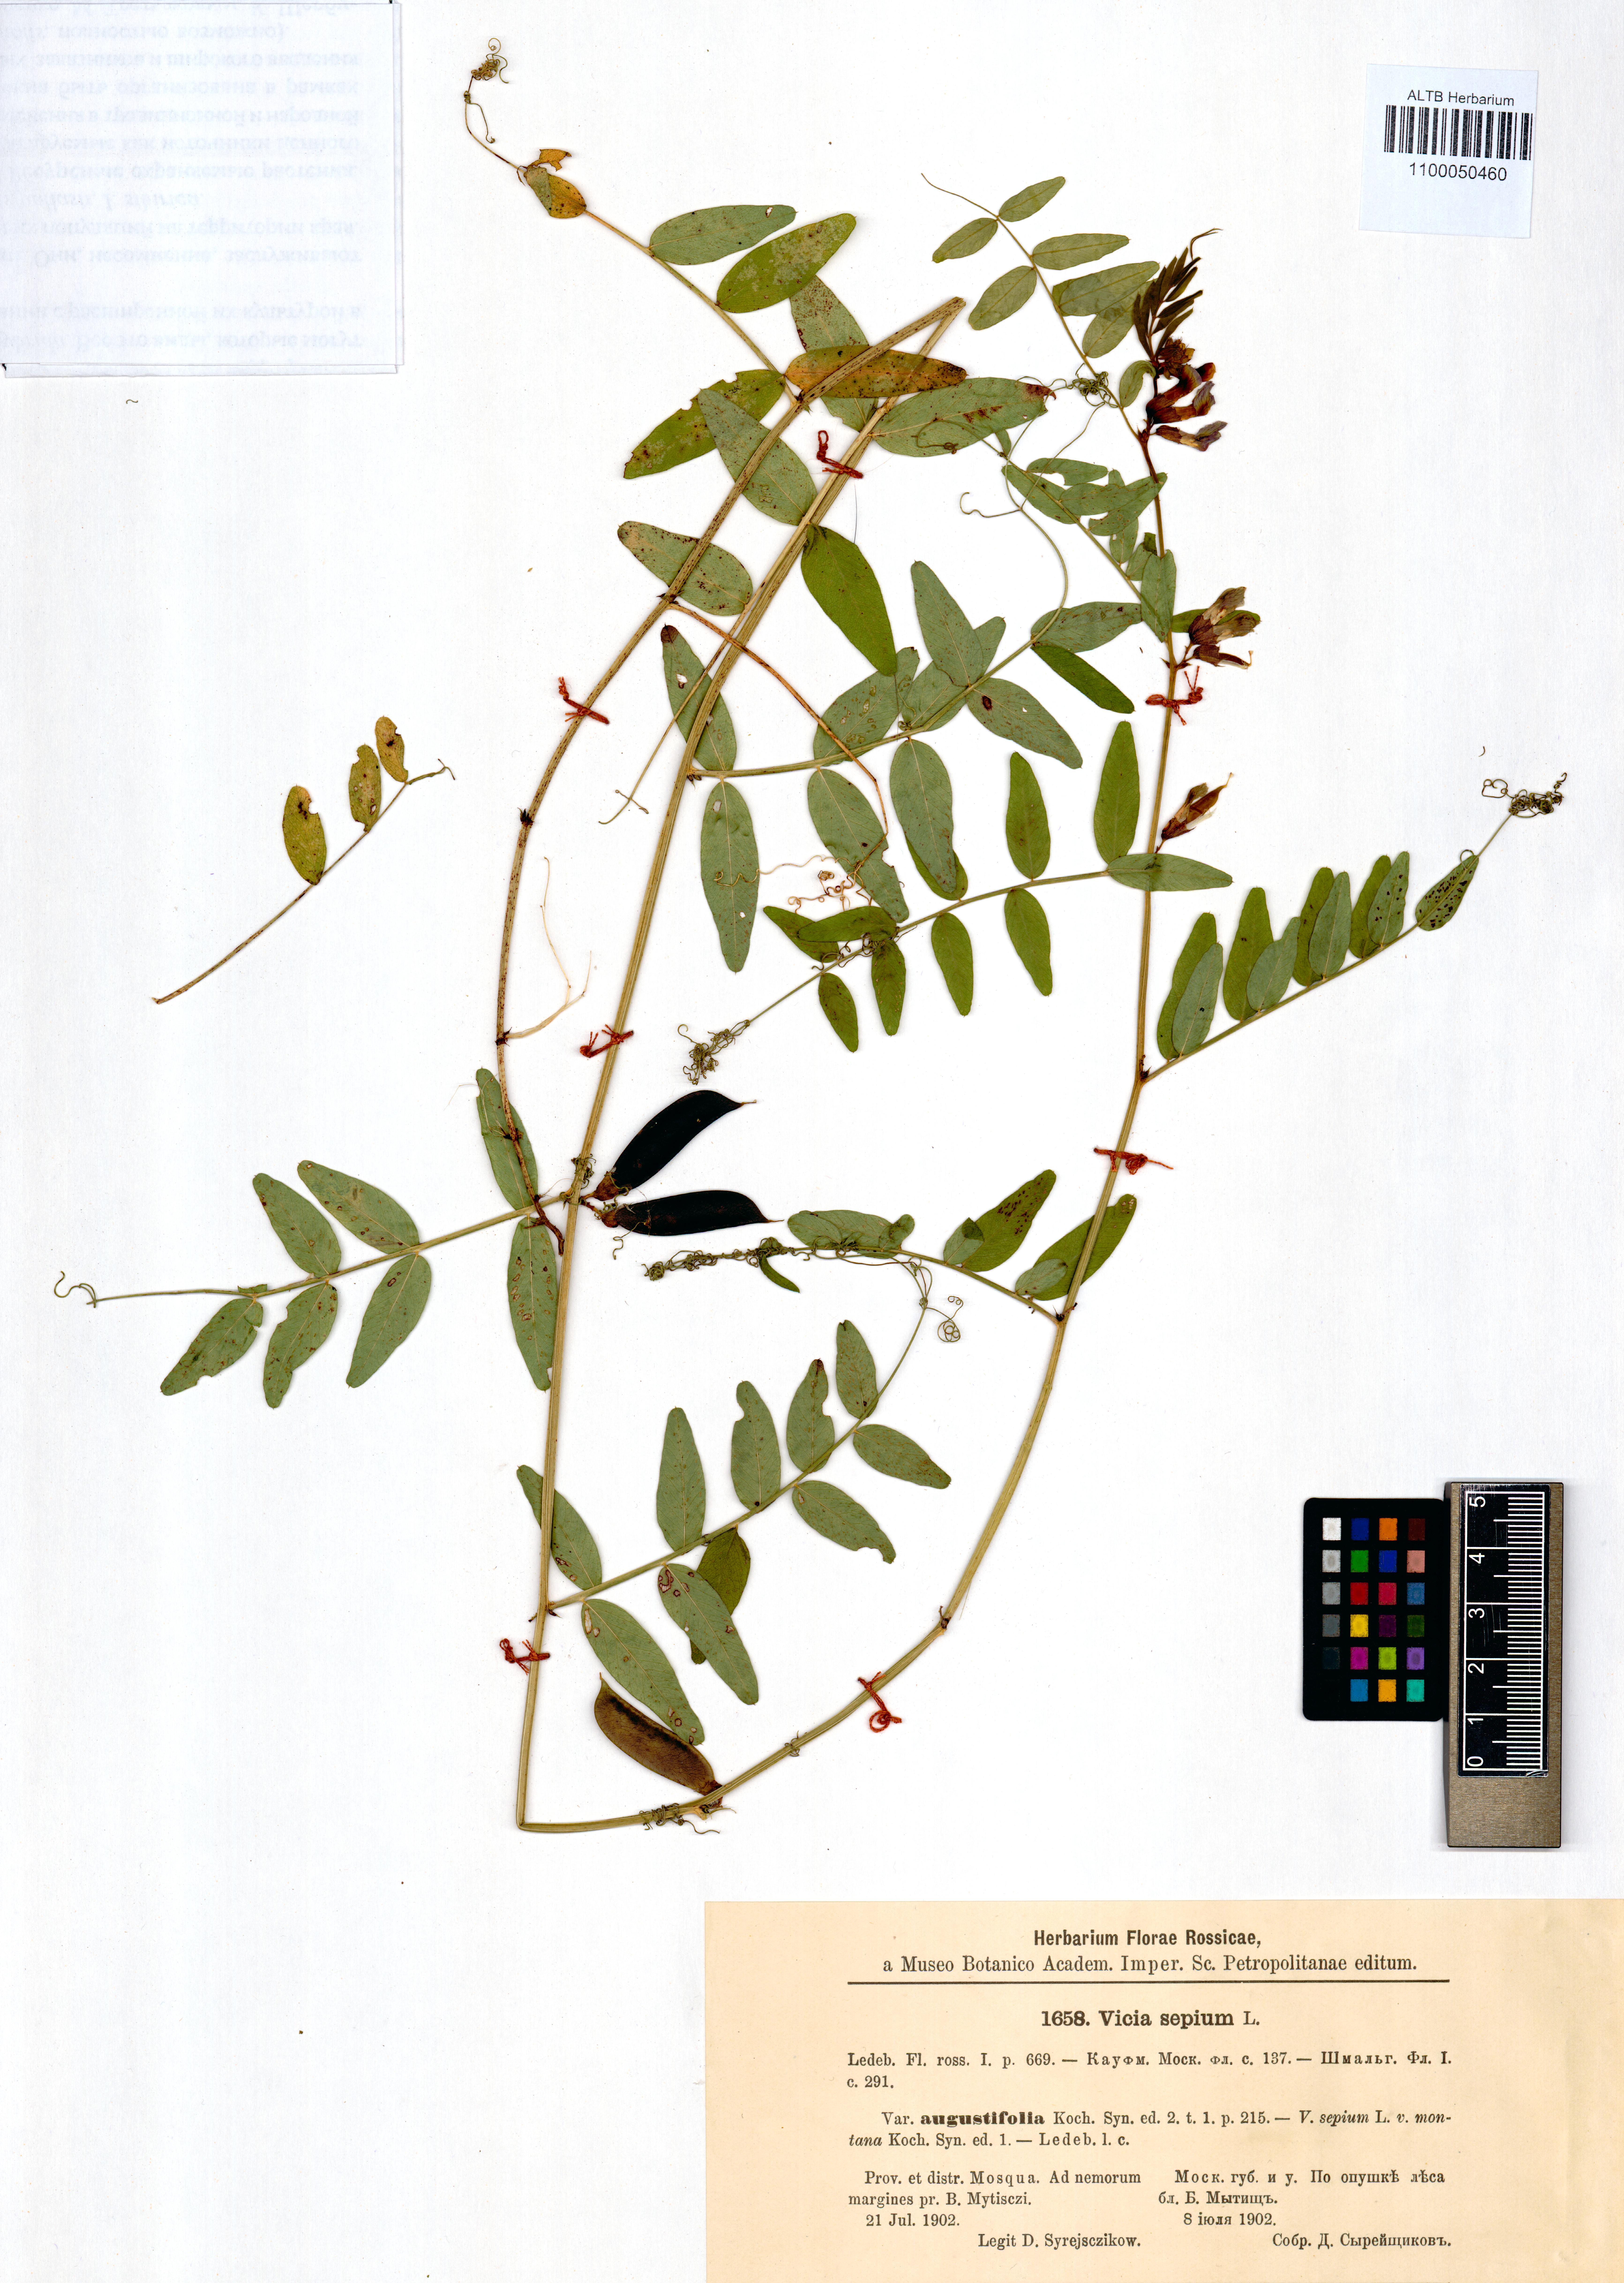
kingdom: Plantae
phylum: Tracheophyta
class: Magnoliopsida
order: Fabales
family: Fabaceae
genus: Vicia
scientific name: Vicia sepium
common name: Bush vetch
